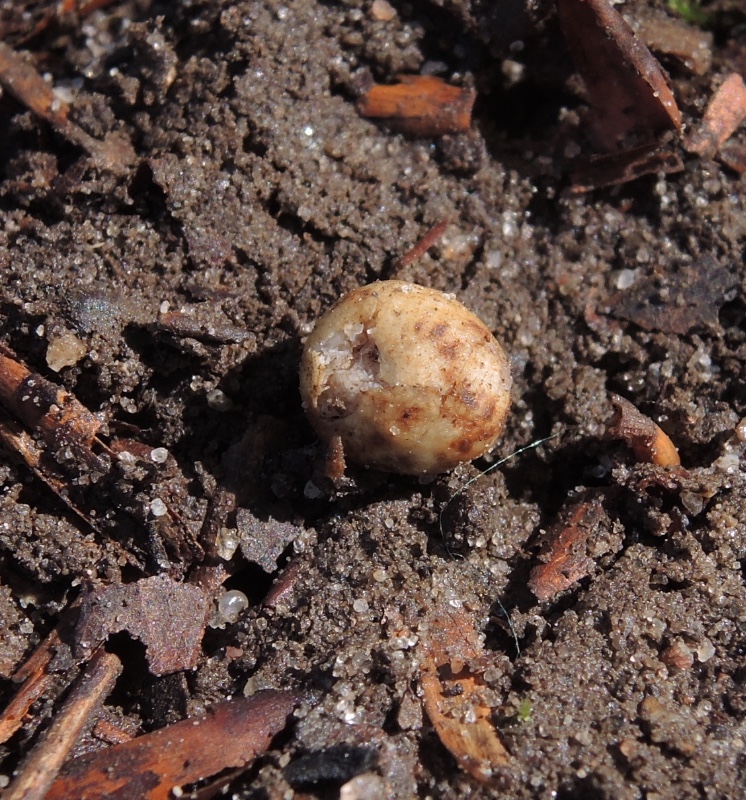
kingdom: Fungi
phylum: Basidiomycota
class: Agaricomycetes
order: Agaricales
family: Hymenogastraceae
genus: Hymenogaster
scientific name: Hymenogaster
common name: knoldtrøffel
